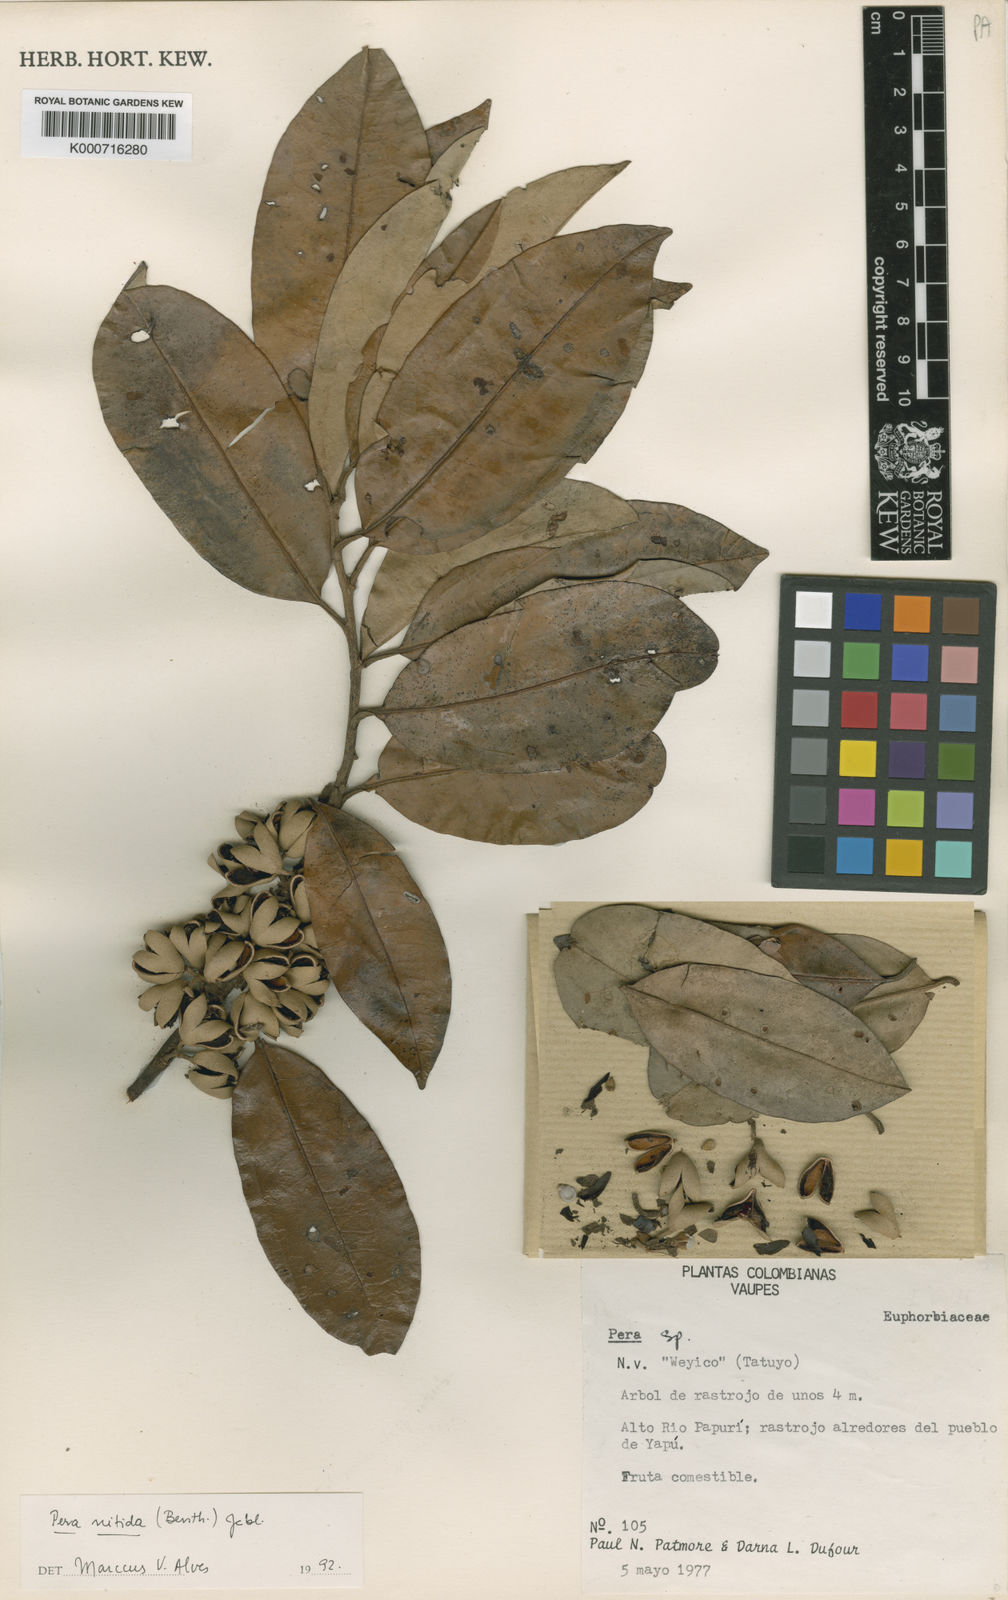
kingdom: Plantae
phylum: Tracheophyta
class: Magnoliopsida
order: Malpighiales
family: Peraceae
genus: Pera
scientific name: Pera decipiens
